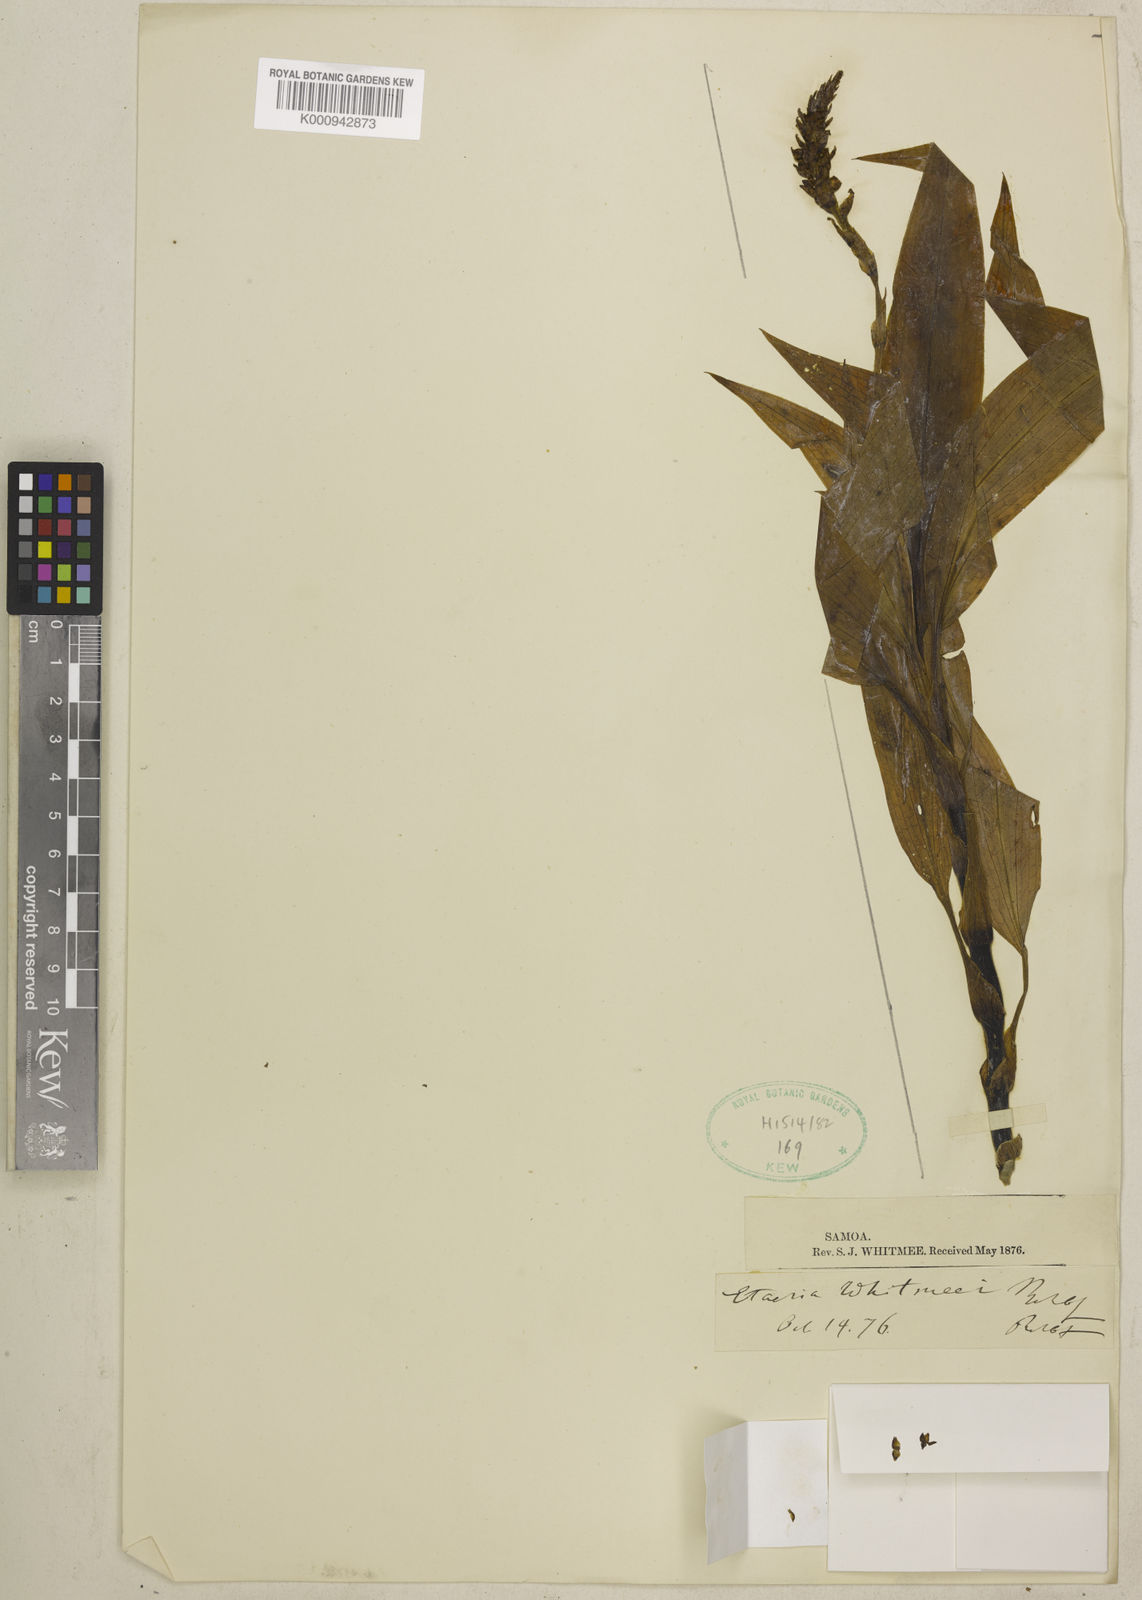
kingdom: Plantae
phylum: Tracheophyta
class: Liliopsida
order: Asparagales
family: Orchidaceae
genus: Hetaeria
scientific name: Hetaeria whitmeei
